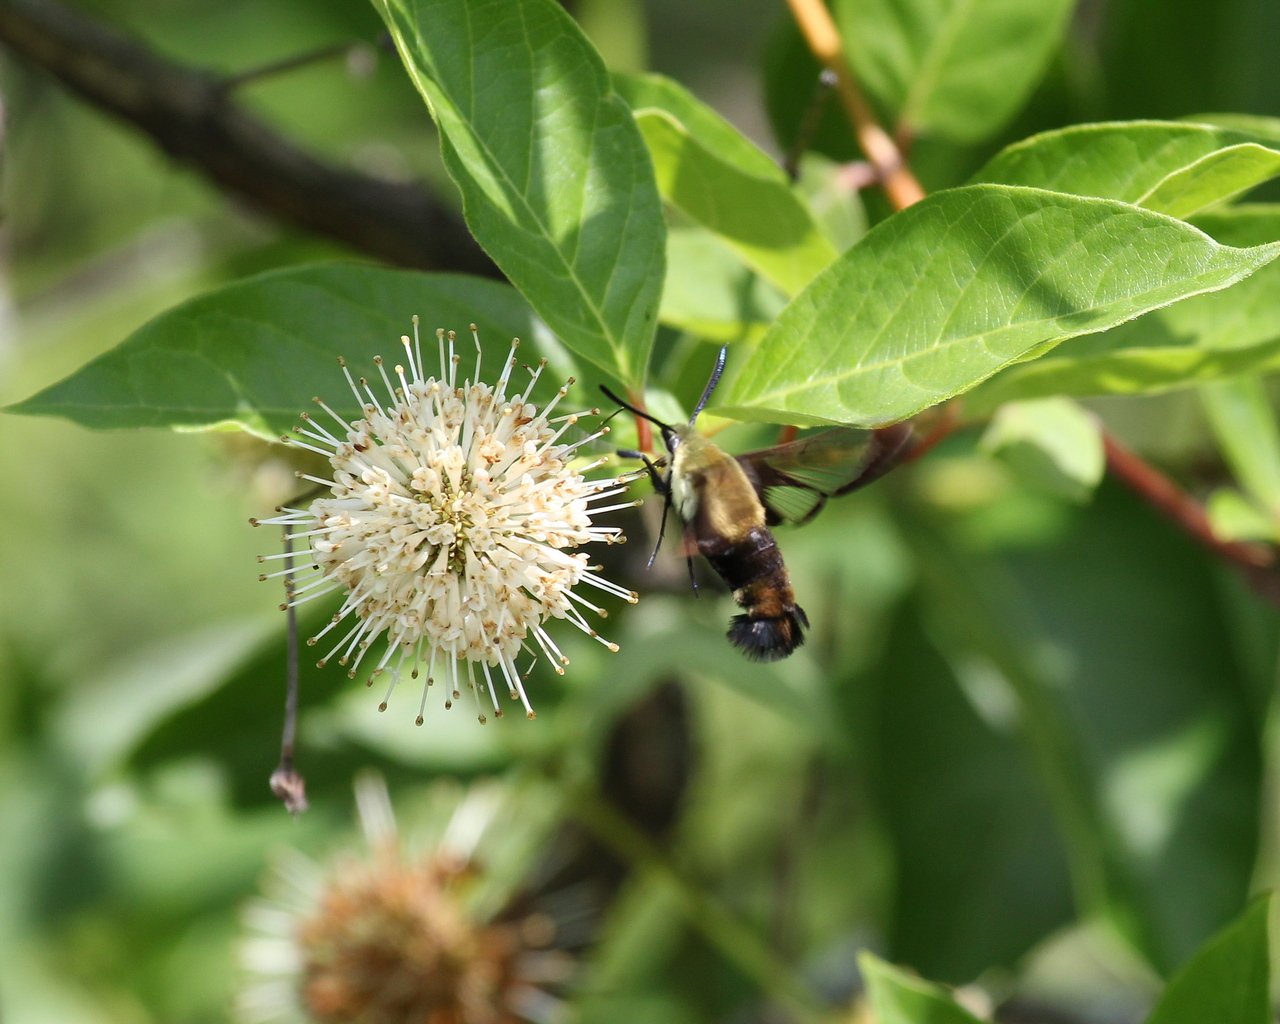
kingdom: Animalia
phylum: Arthropoda
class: Insecta
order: Lepidoptera
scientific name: Lepidoptera
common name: Butterflies
